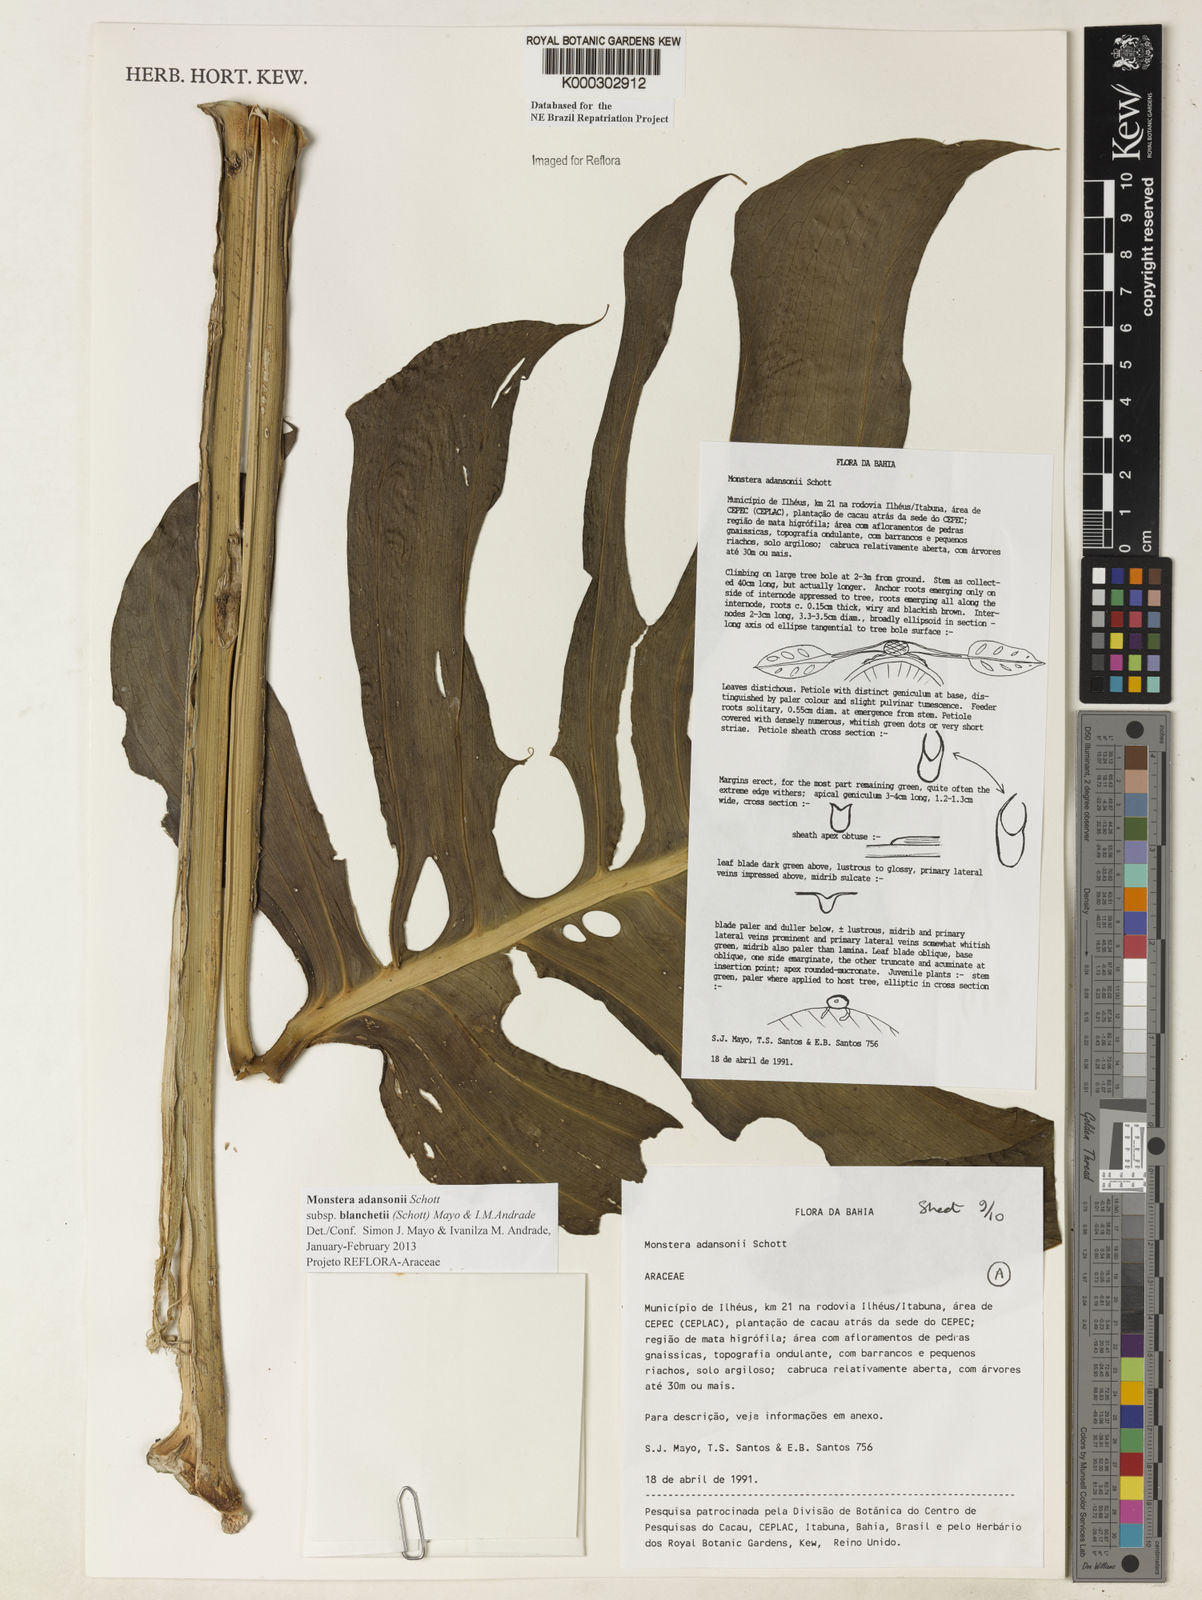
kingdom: Plantae
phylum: Tracheophyta
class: Liliopsida
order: Alismatales
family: Araceae
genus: Monstera
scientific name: Monstera adansonii
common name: Tarovine
